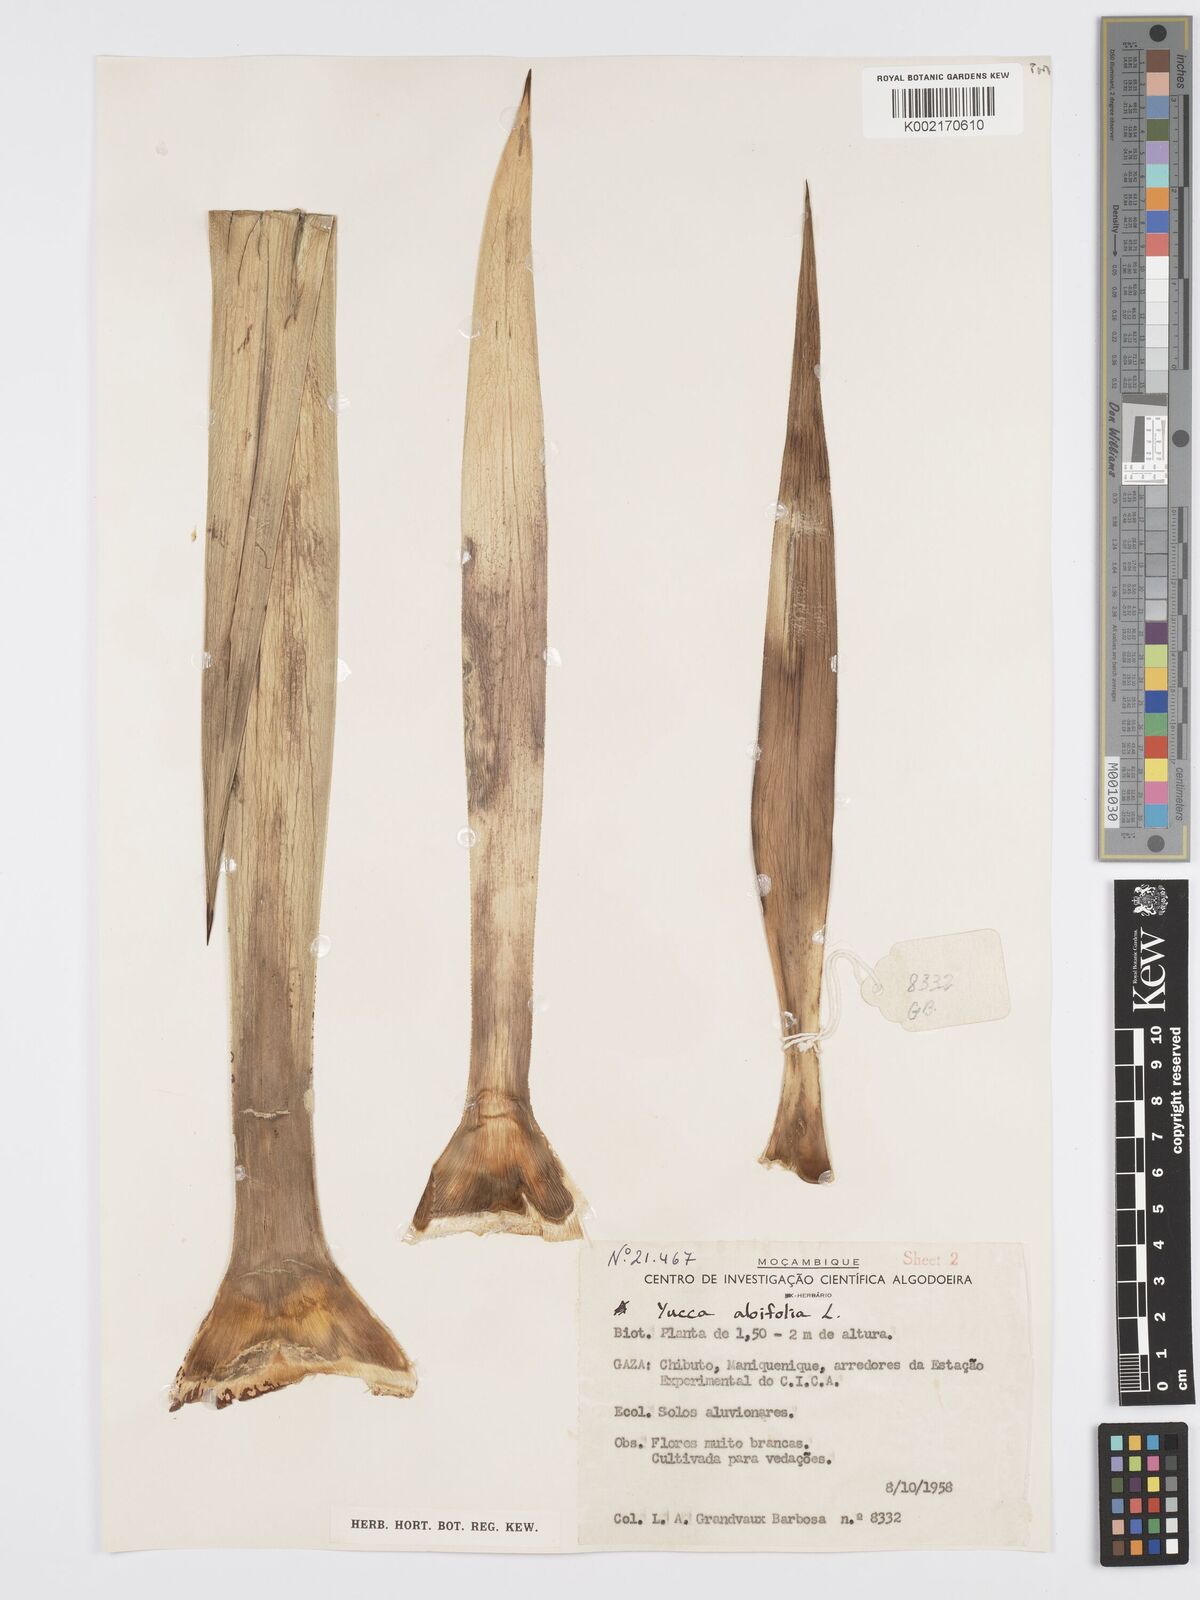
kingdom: Plantae
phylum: Tracheophyta
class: Liliopsida
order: Asparagales
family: Asparagaceae
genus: Yucca
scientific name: Yucca aloifolia
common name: Aloe yucca
